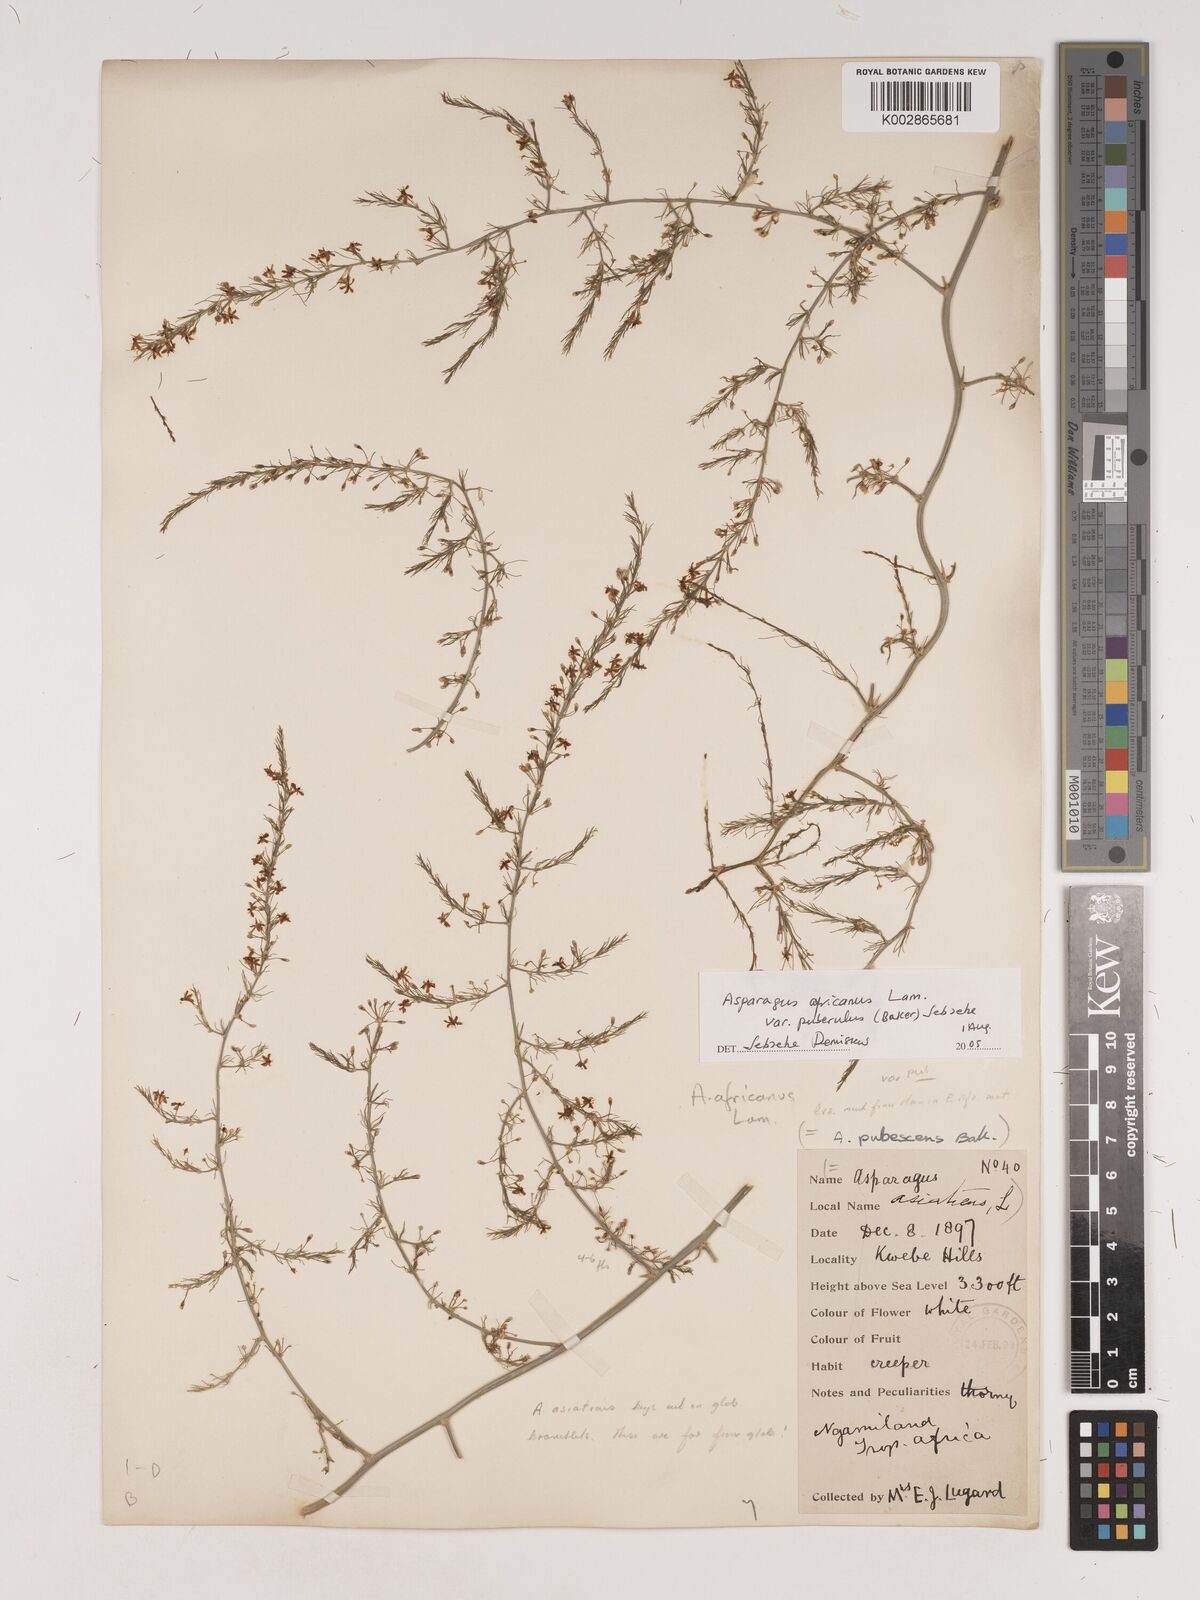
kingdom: Plantae
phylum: Tracheophyta
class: Liliopsida
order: Asparagales
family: Asparagaceae
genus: Asparagus
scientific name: Asparagus
